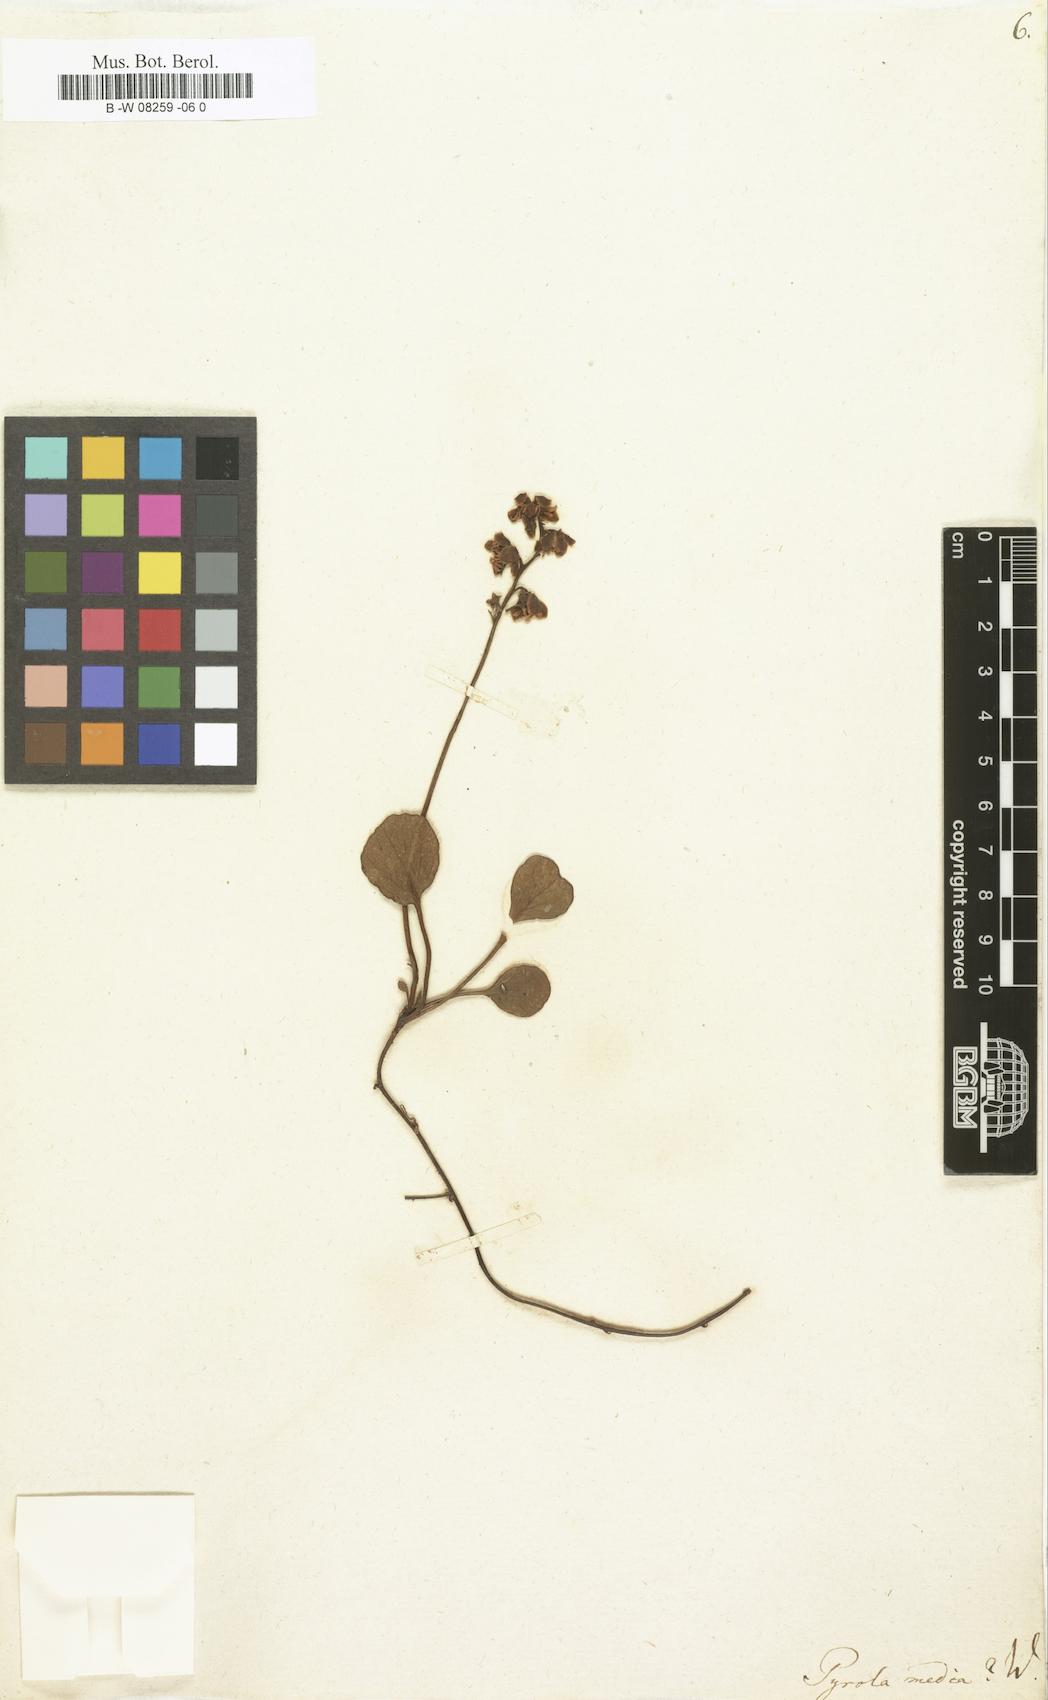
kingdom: Plantae
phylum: Tracheophyta
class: Magnoliopsida
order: Ericales
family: Ericaceae
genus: Pyrola
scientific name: Pyrola media
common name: Intermediate wintergreen
